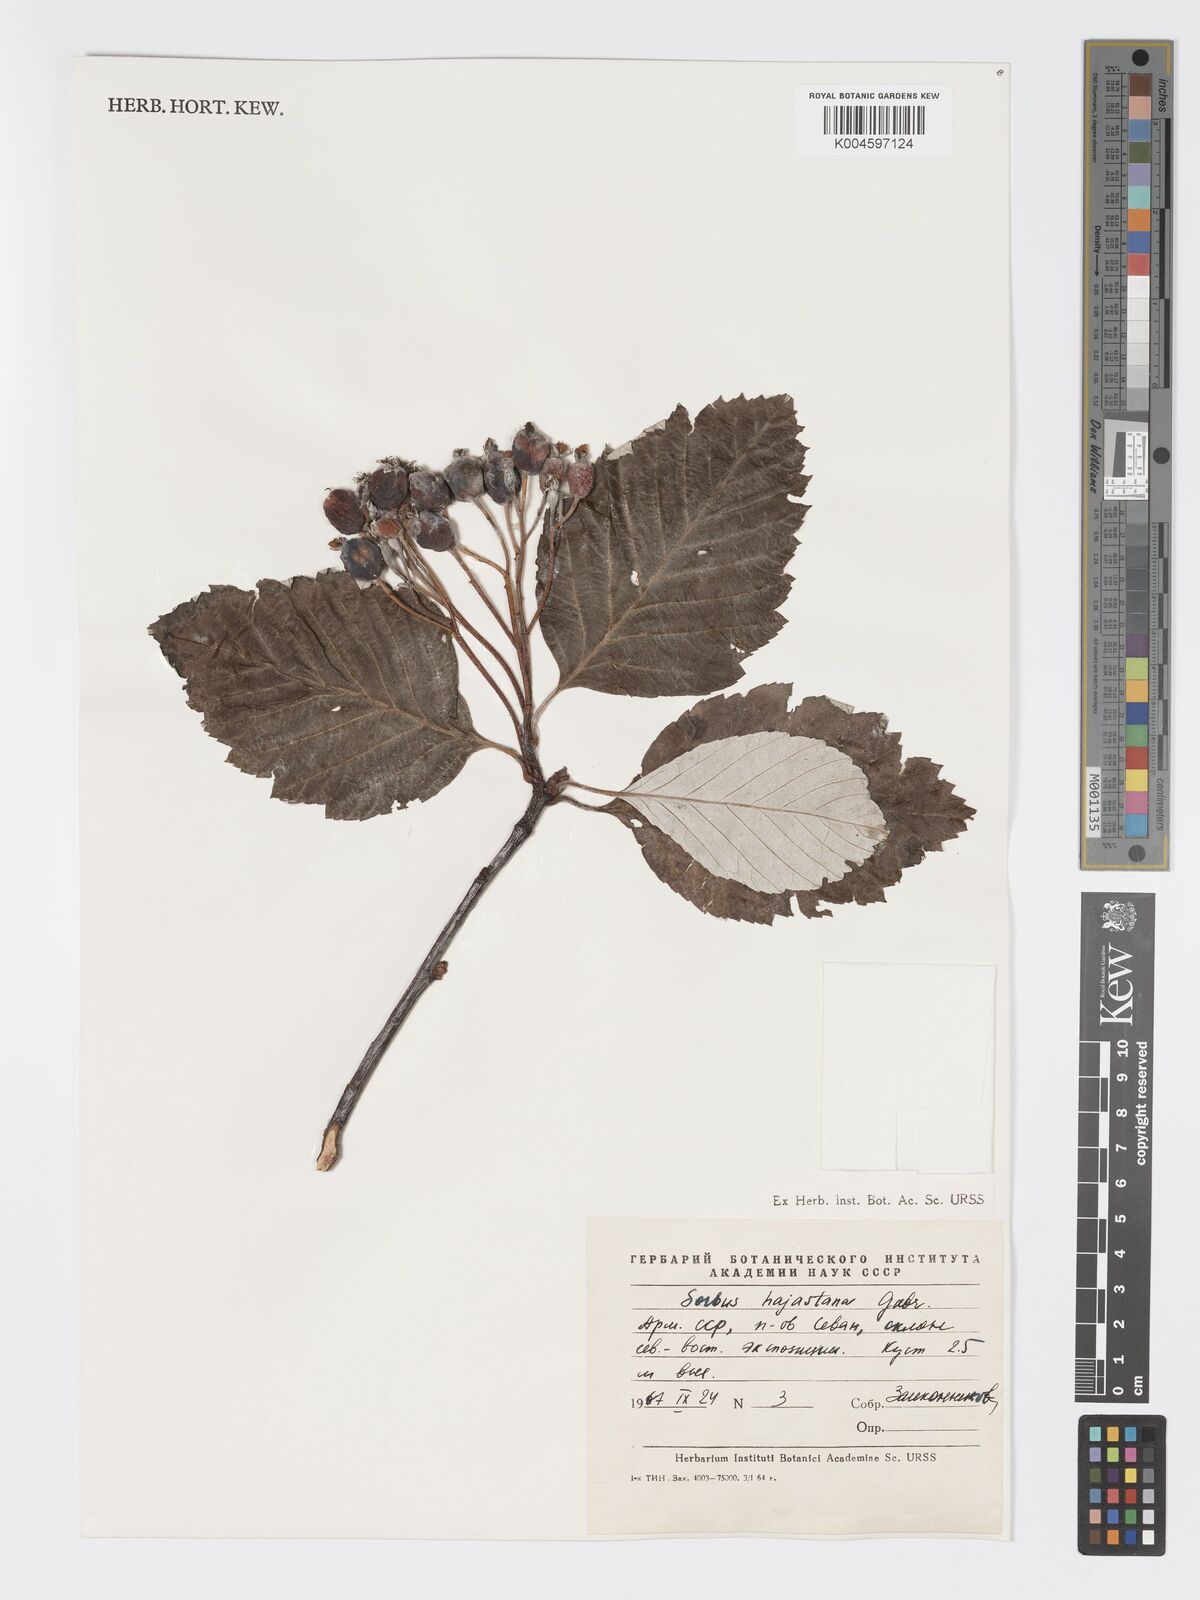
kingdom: Plantae
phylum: Tracheophyta
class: Magnoliopsida
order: Rosales
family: Rosaceae
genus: Sorbus
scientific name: Sorbus hajastana
